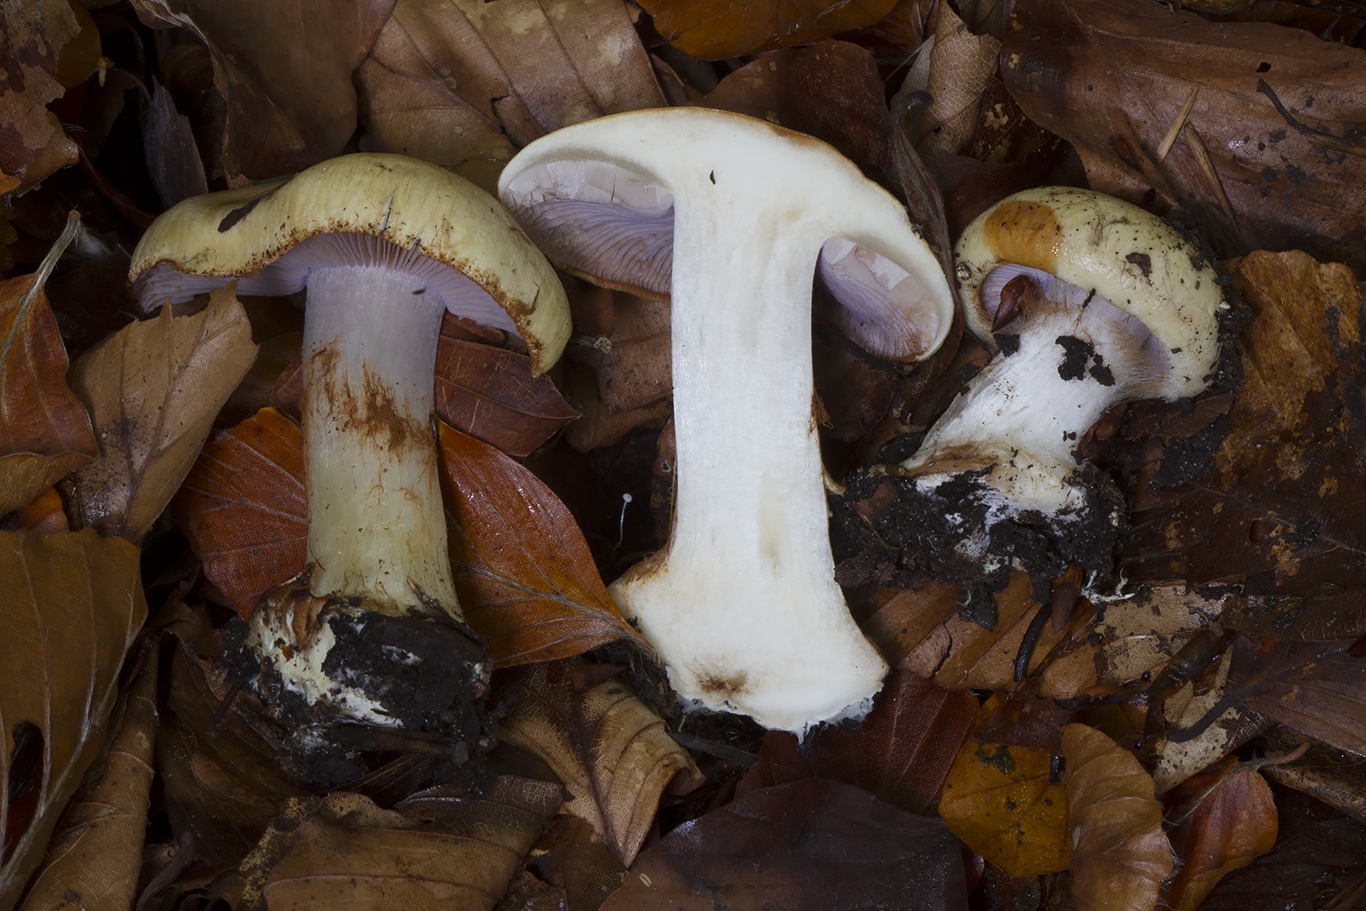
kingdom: Fungi
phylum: Basidiomycota
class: Agaricomycetes
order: Agaricales
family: Cortinariaceae
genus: Calonarius
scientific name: Calonarius platypus
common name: platfodet slørhat
